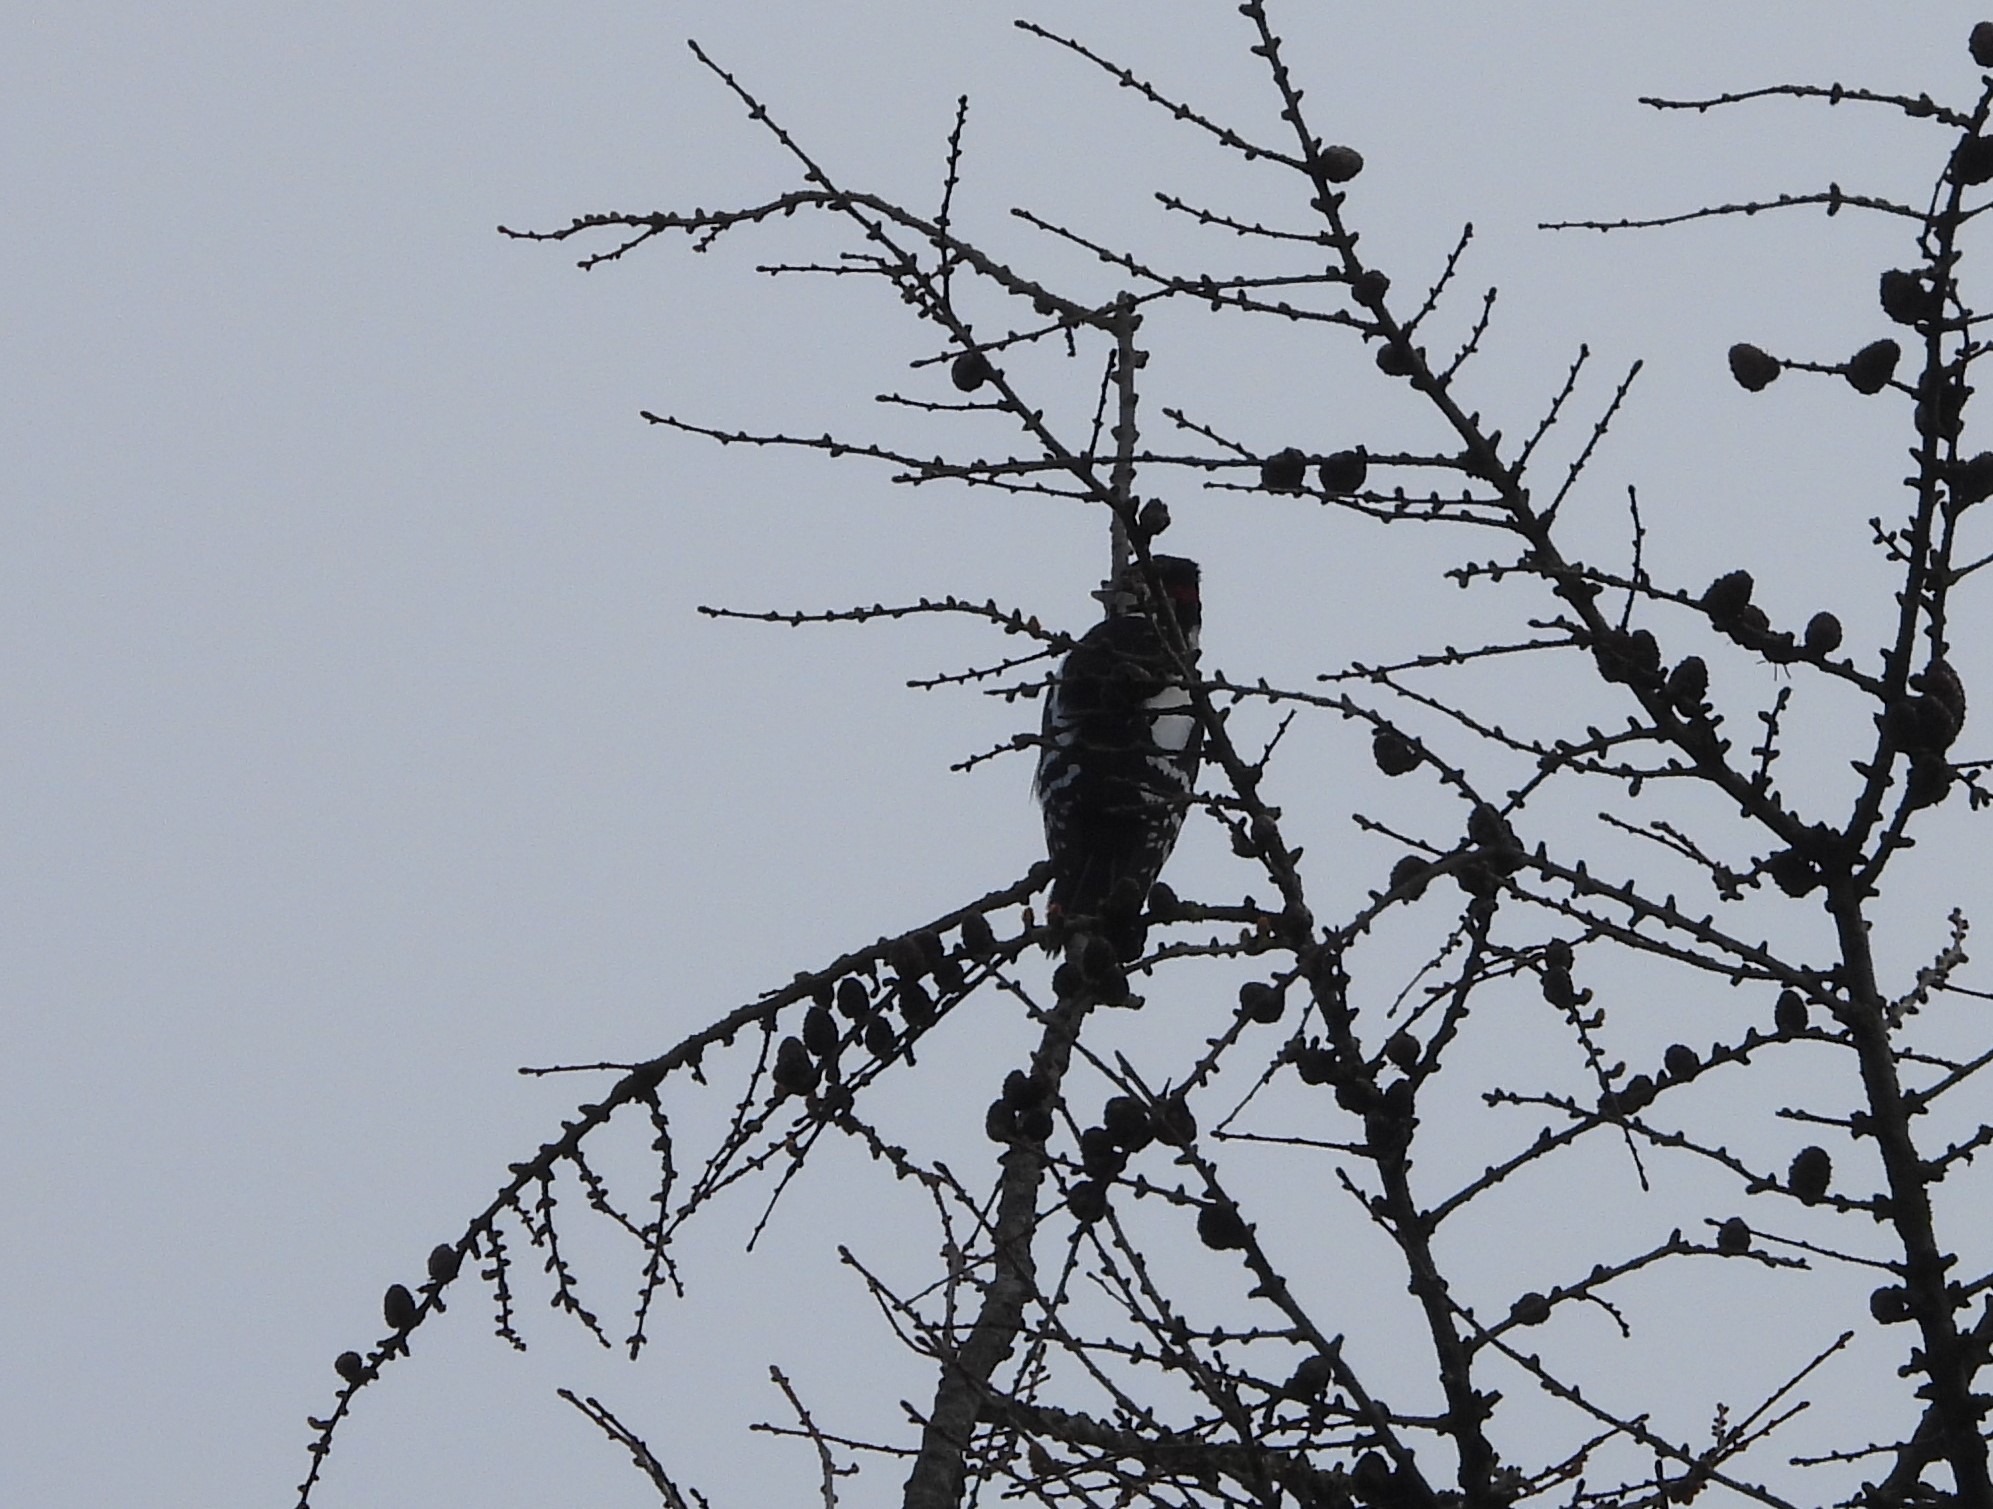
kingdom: Animalia
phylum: Chordata
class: Aves
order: Piciformes
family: Picidae
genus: Dendrocopos
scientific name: Dendrocopos major
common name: Stor flagspætte
